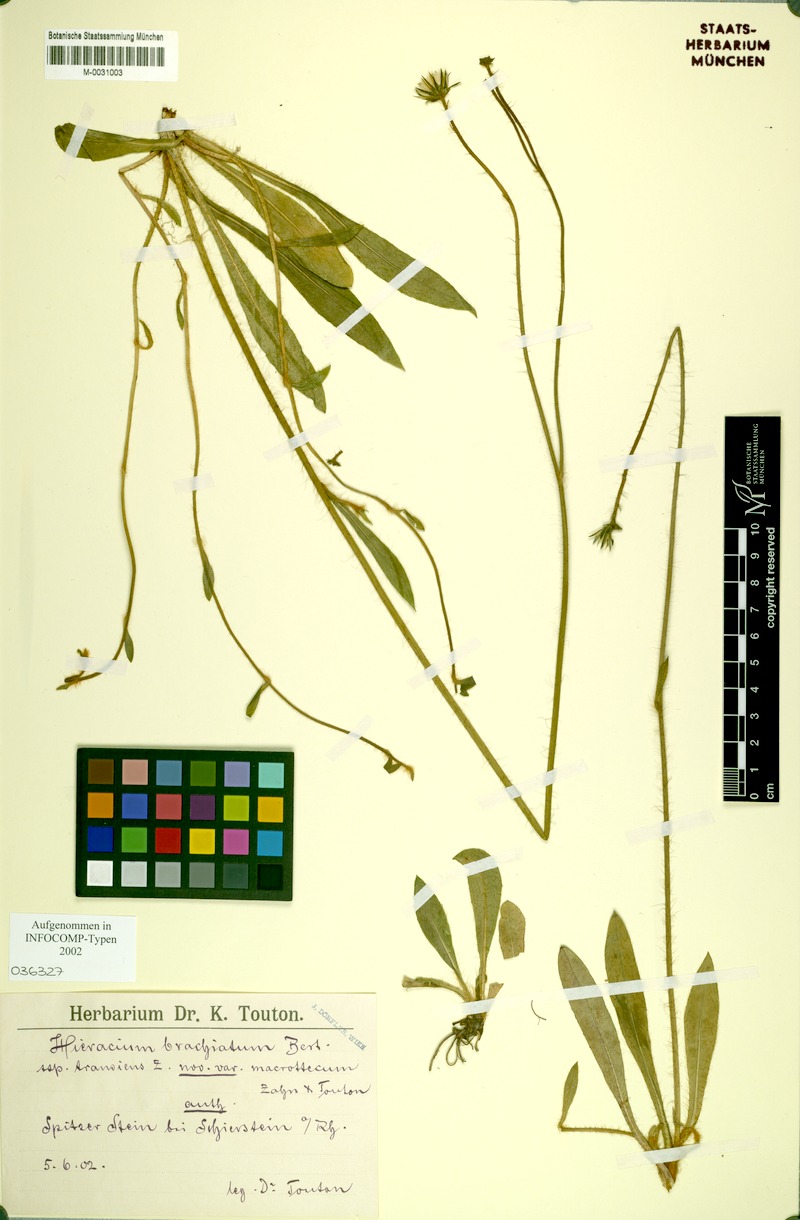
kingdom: Plantae
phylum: Tracheophyta
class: Magnoliopsida
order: Asterales
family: Asteraceae
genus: Pilosella
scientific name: Pilosella acutifolia
